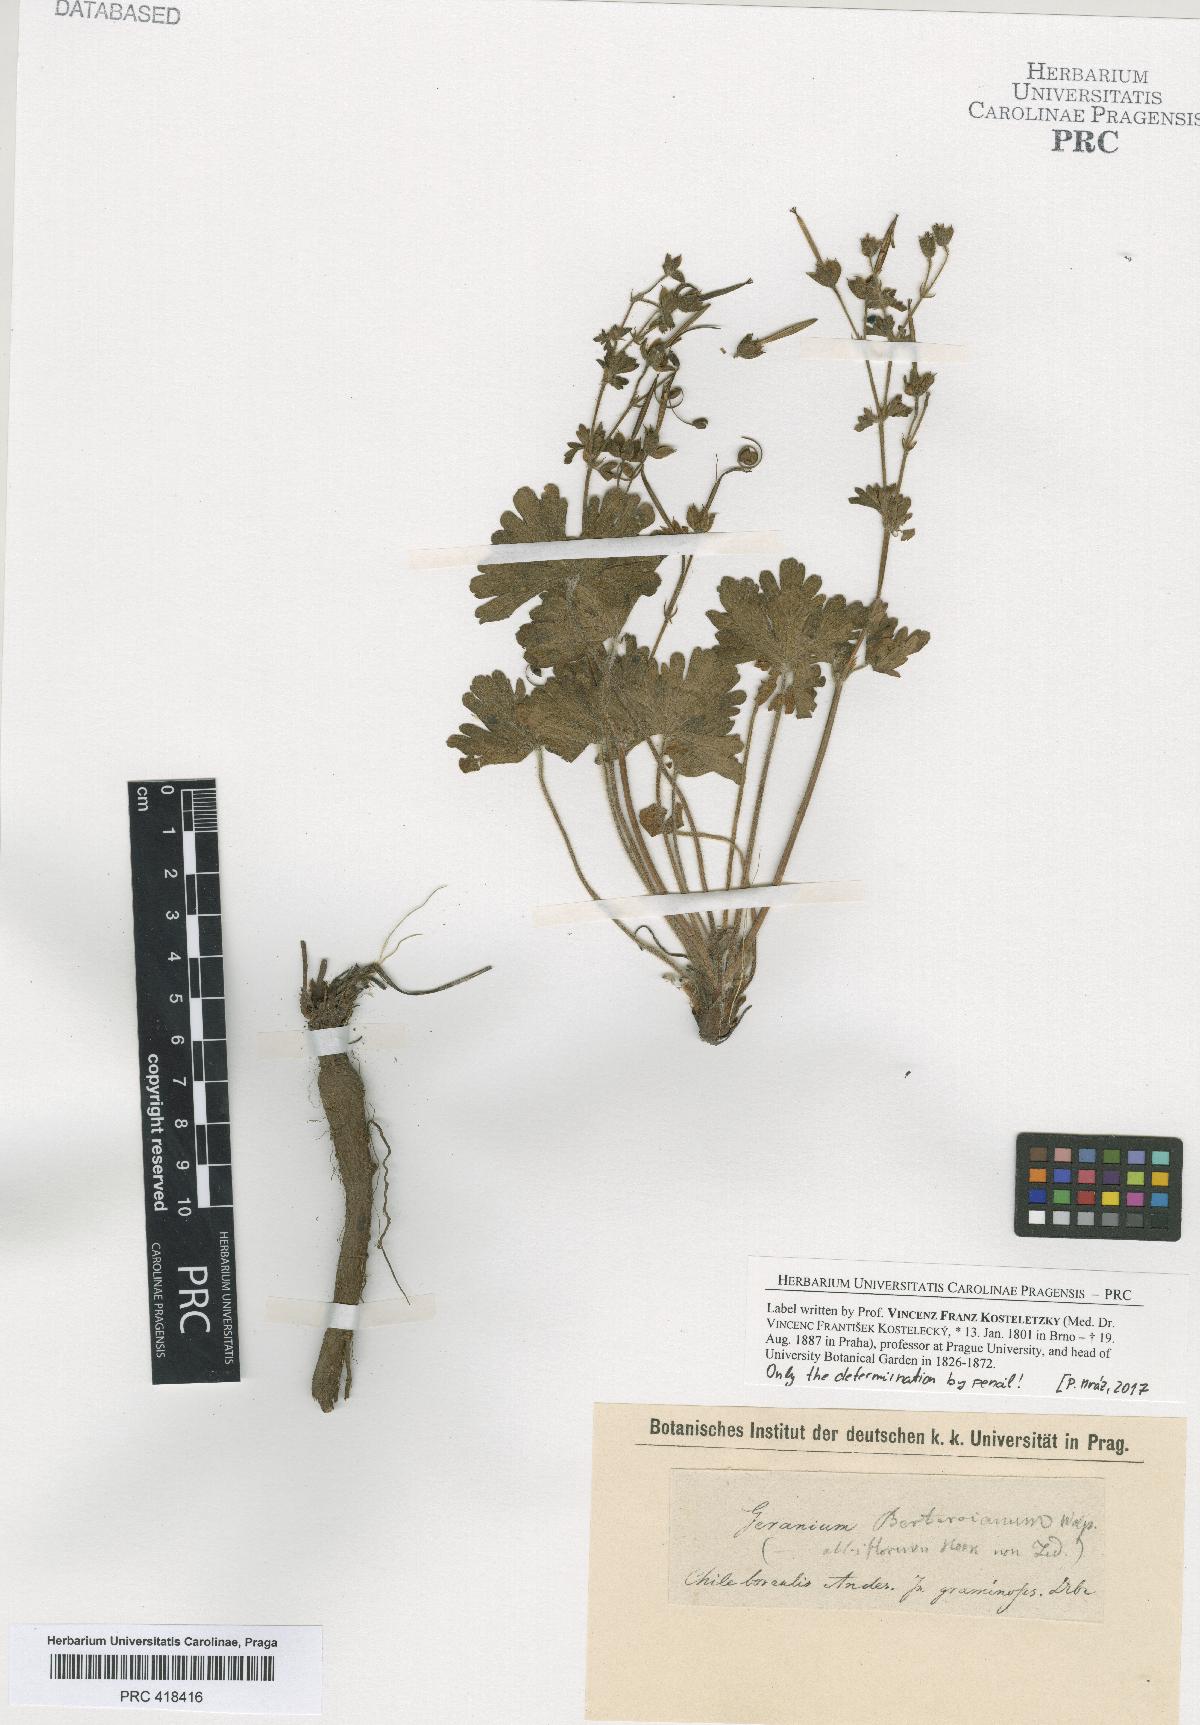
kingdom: Plantae
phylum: Tracheophyta
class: Magnoliopsida
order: Geraniales
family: Geraniaceae
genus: Geranium
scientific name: Geranium berteroanum
